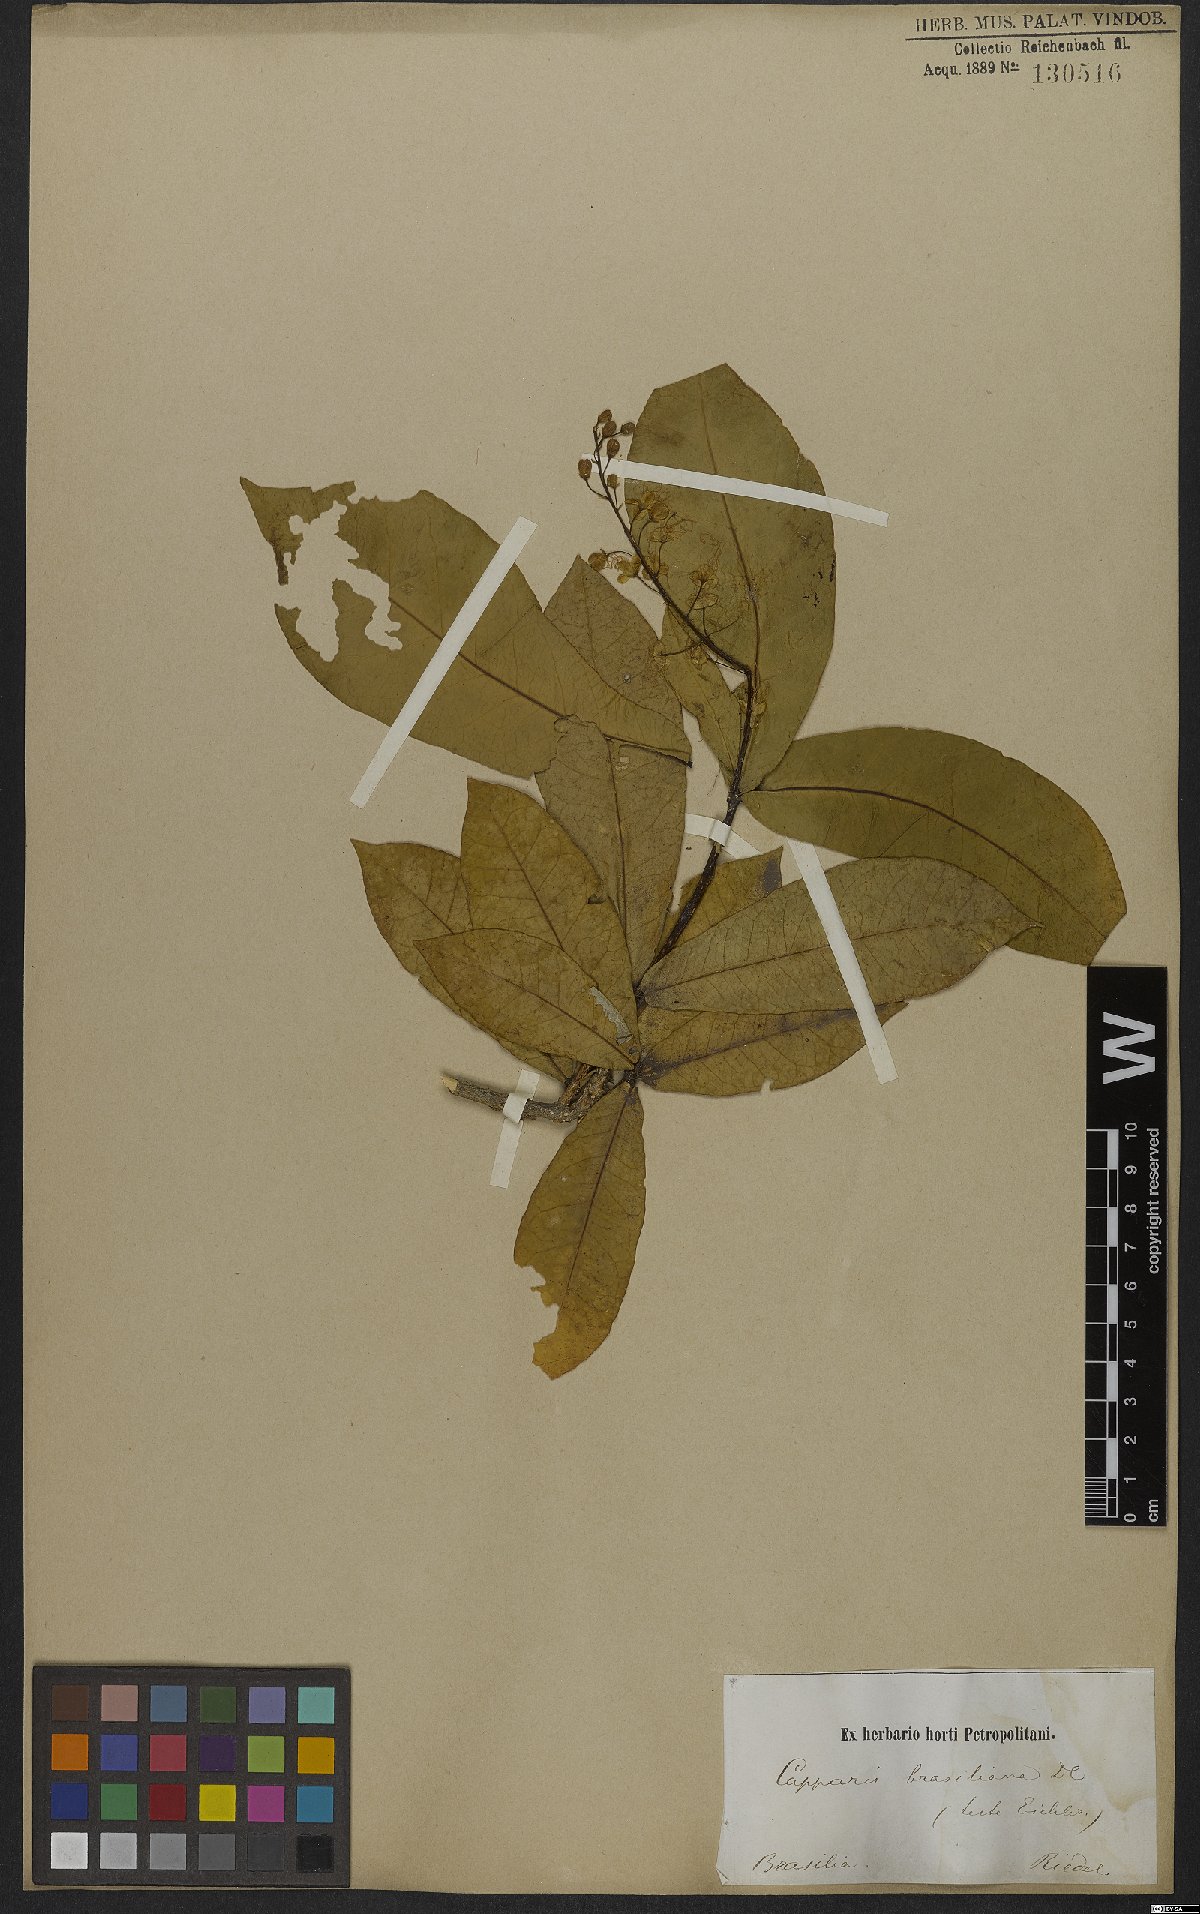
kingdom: Plantae
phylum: Tracheophyta
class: Magnoliopsida
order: Brassicales
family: Capparaceae
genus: Monilicarpa
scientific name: Monilicarpa brasiliana
